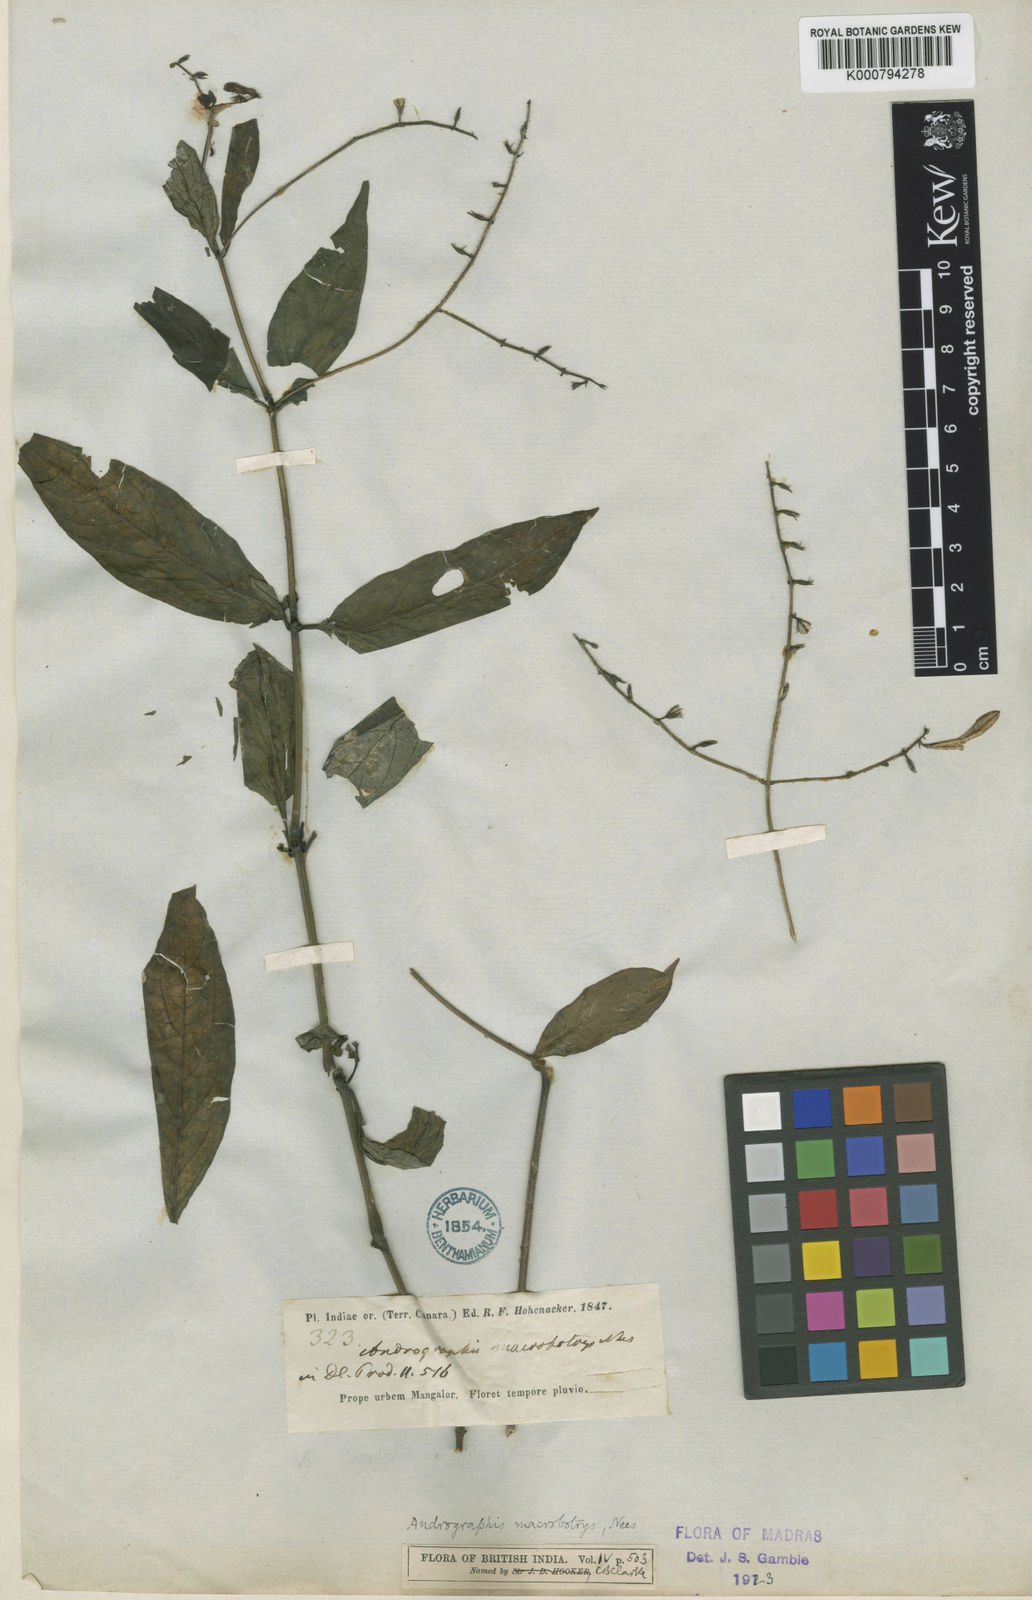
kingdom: Plantae
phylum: Tracheophyta
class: Magnoliopsida
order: Lamiales
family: Acanthaceae
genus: Andrographis
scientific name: Andrographis macrobotrys
